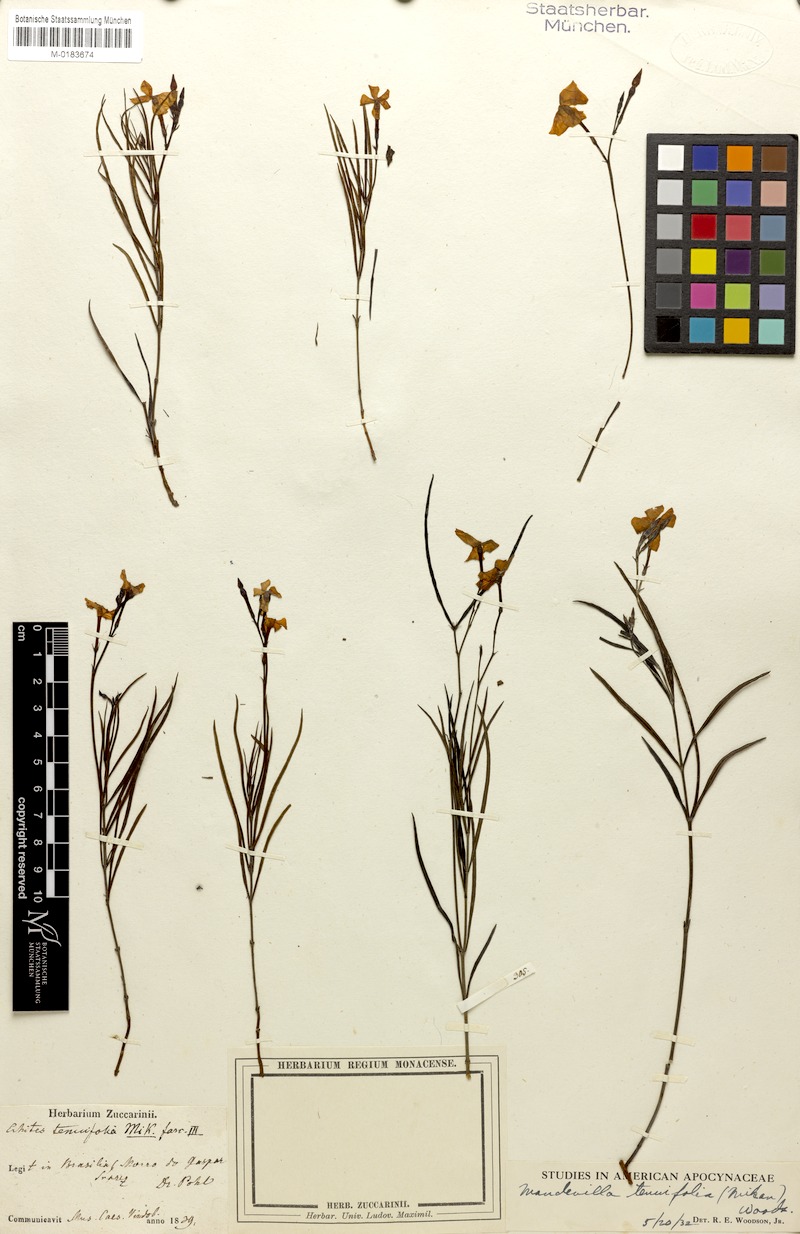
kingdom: Plantae
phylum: Tracheophyta
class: Magnoliopsida
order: Gentianales
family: Apocynaceae
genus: Mandevilla
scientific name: Mandevilla tenuifolia
